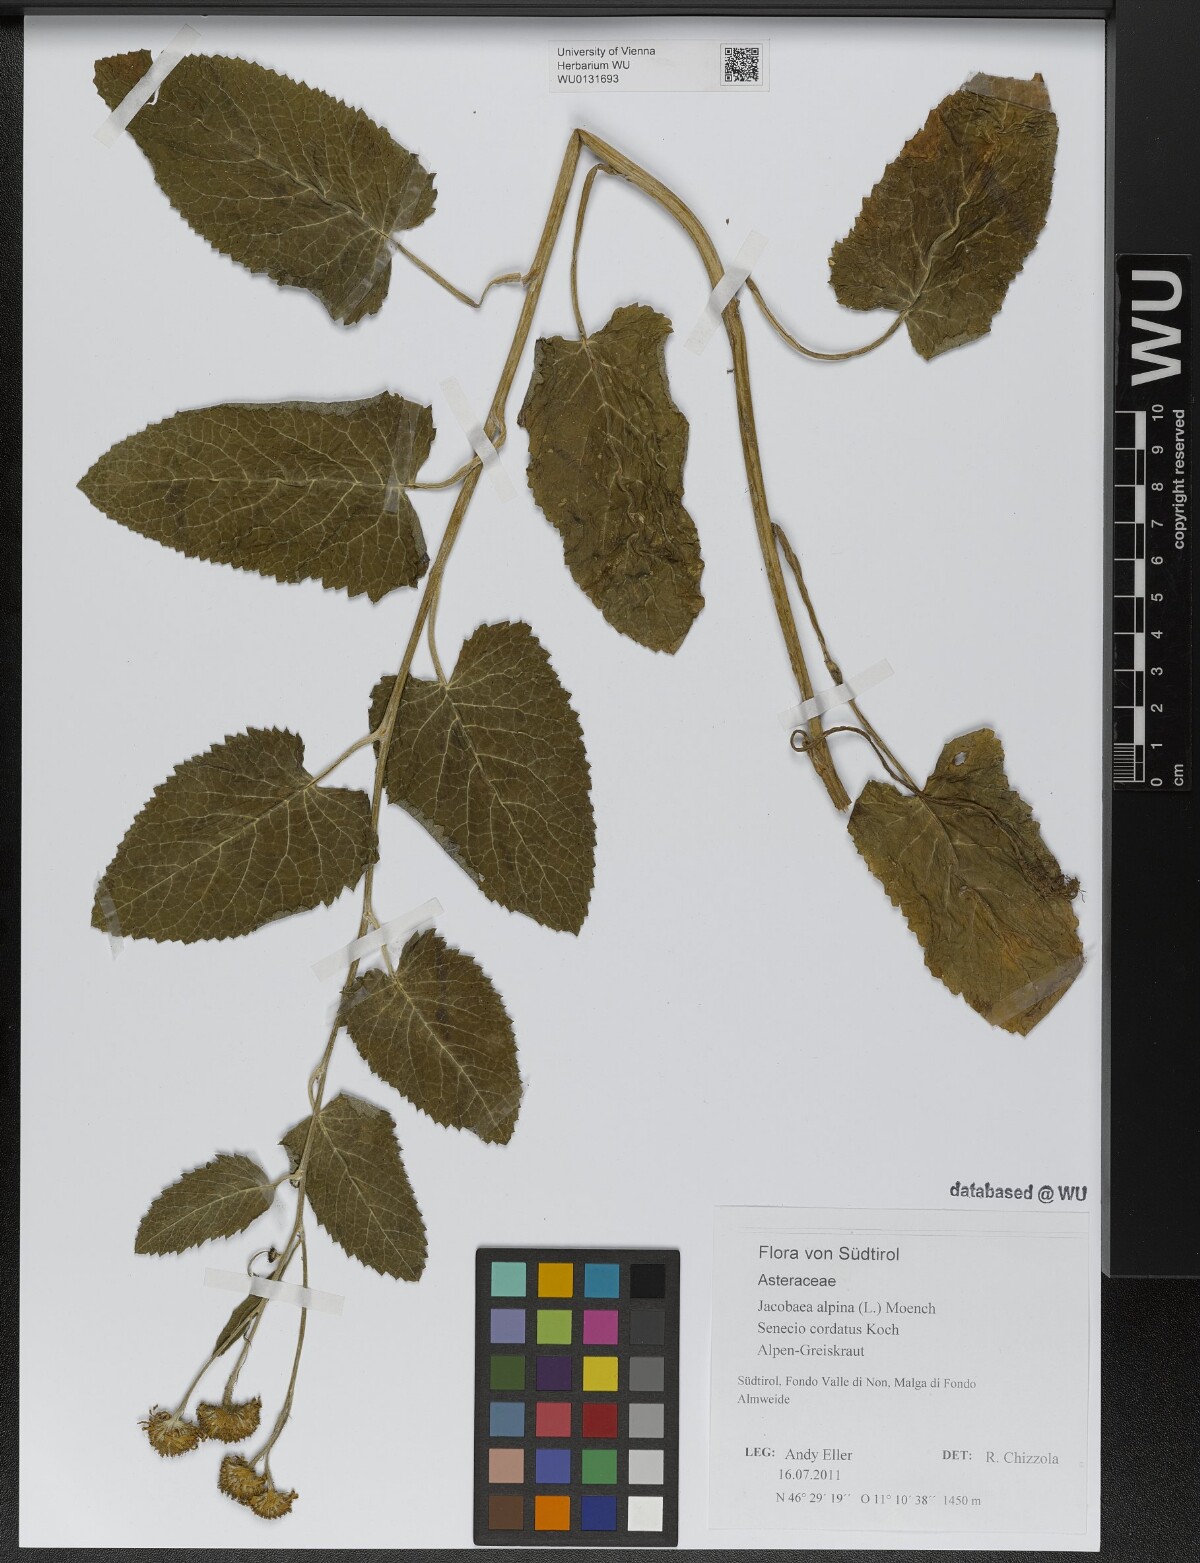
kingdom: Plantae
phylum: Tracheophyta
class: Magnoliopsida
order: Asterales
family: Asteraceae
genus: Jacobaea
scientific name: Jacobaea alpina
